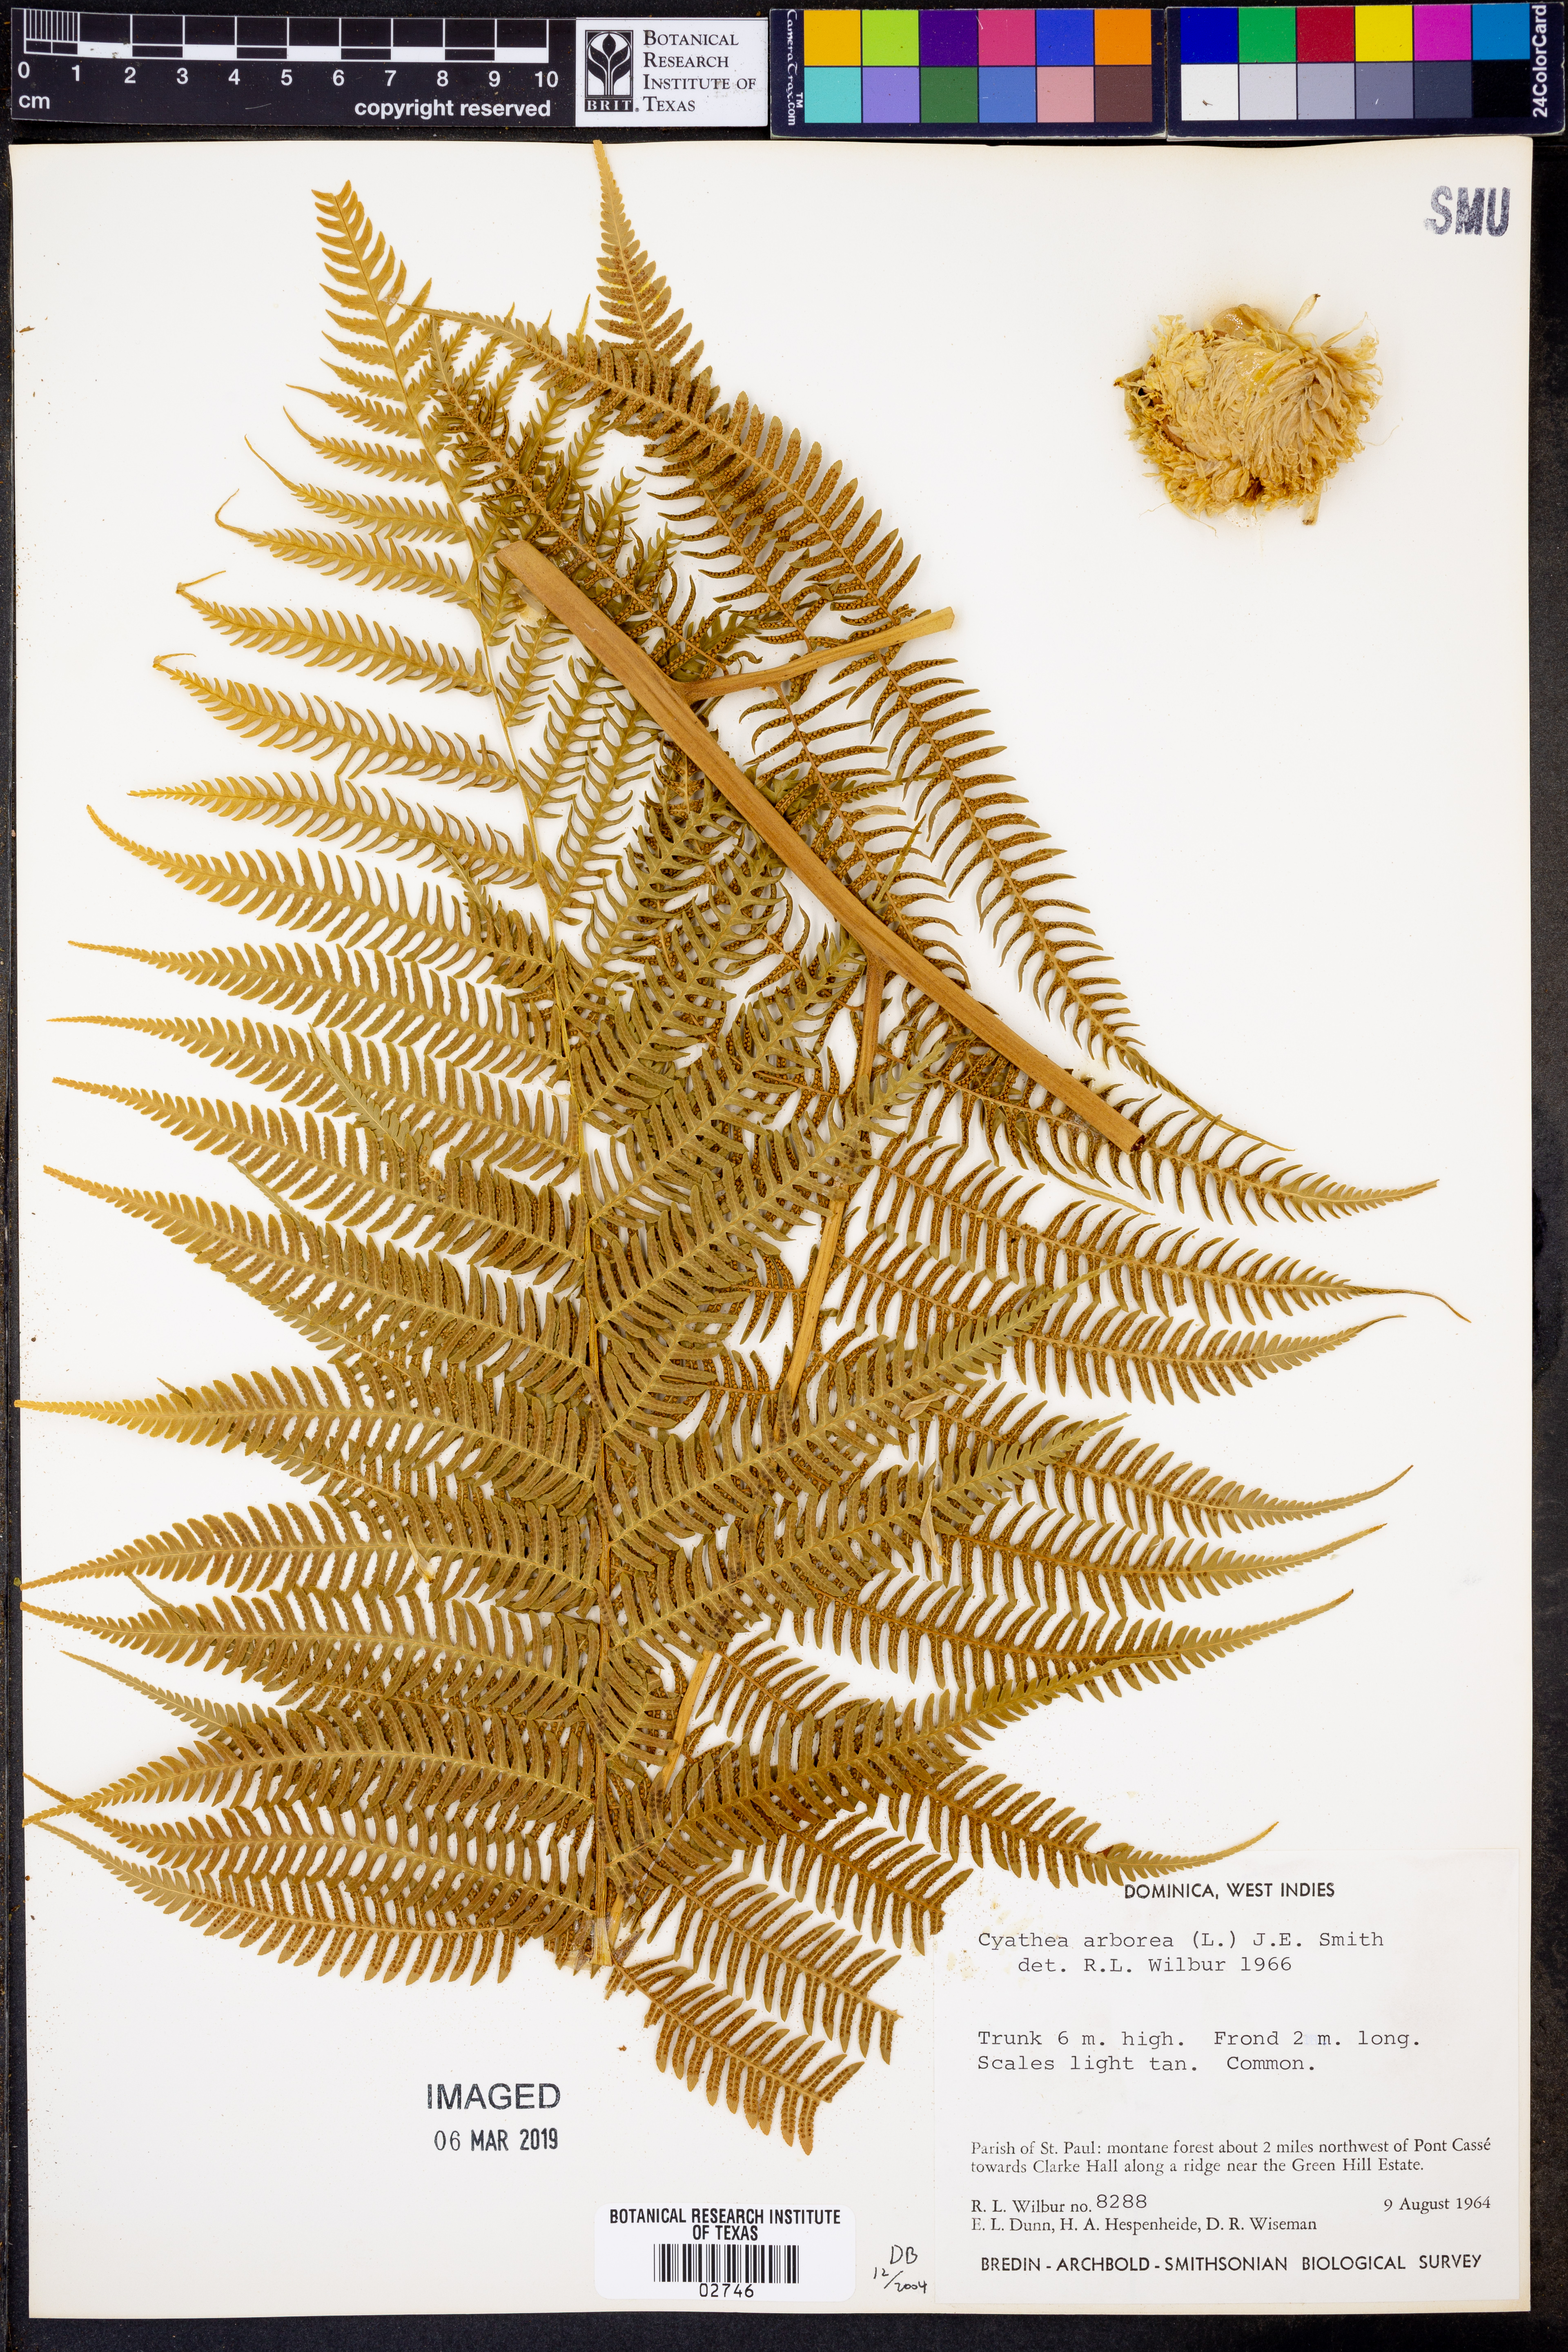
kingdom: Plantae
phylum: Tracheophyta
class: Polypodiopsida
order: Cyatheales
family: Cyatheaceae
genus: Cyathea
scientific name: Cyathea arborea
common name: West indian treefern
